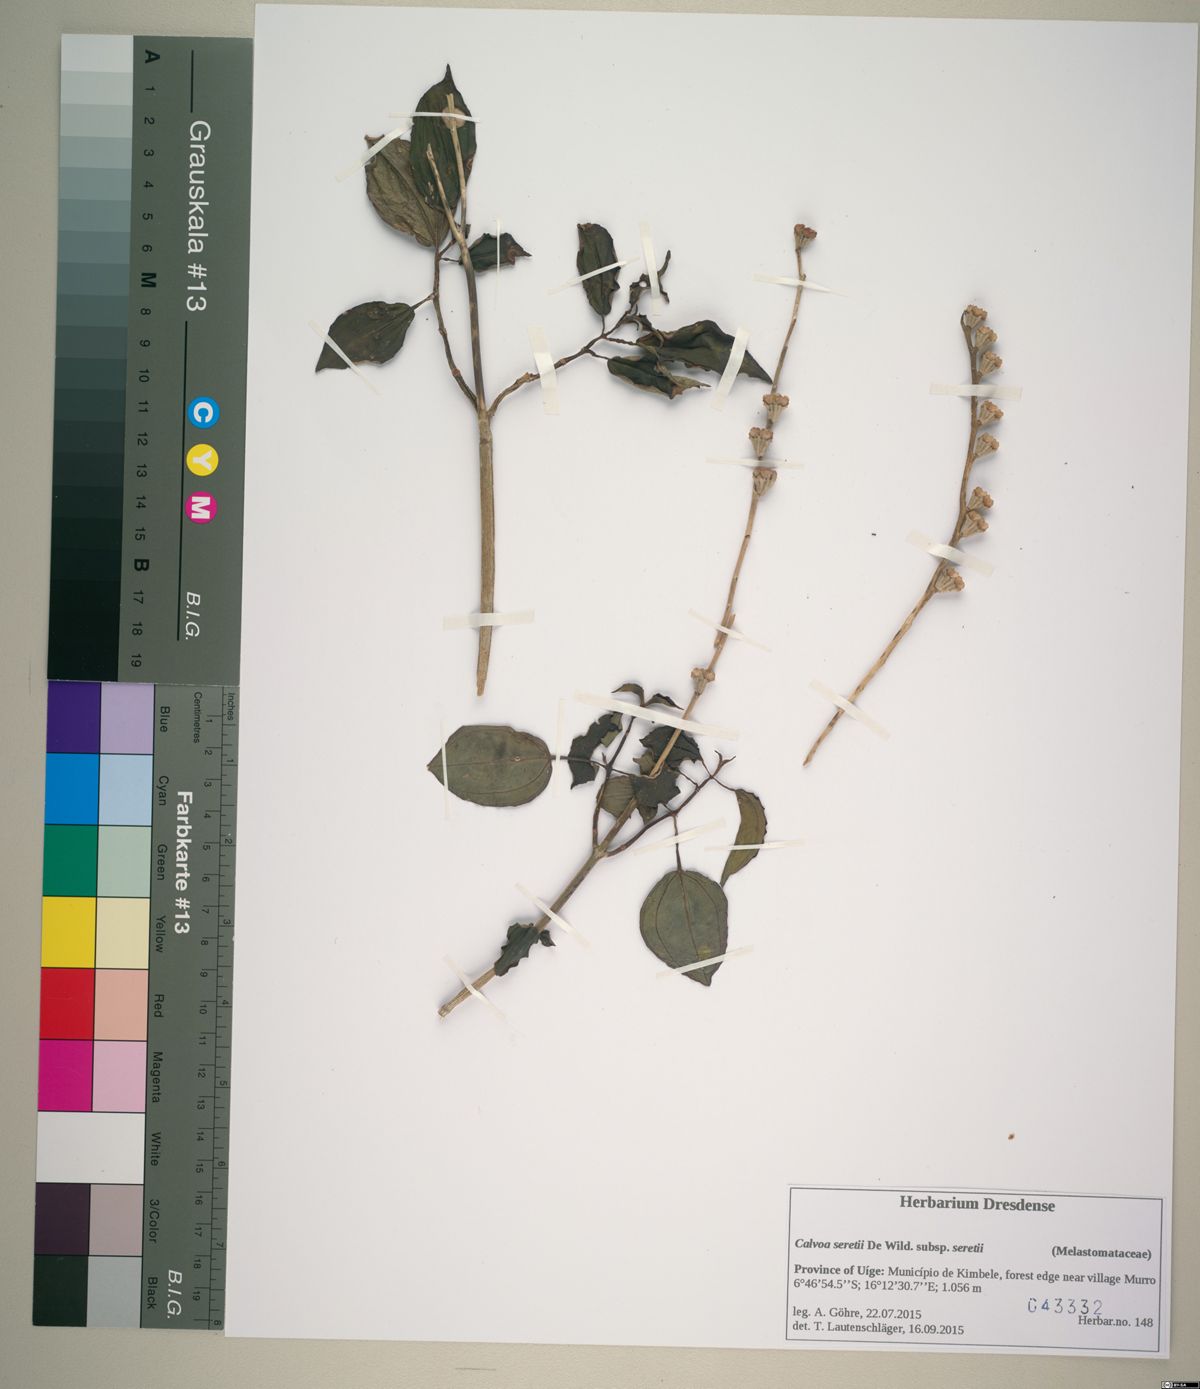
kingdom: Plantae
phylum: Tracheophyta
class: Magnoliopsida
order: Myrtales
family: Melastomataceae
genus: Calvoa
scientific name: Calvoa angolensis
